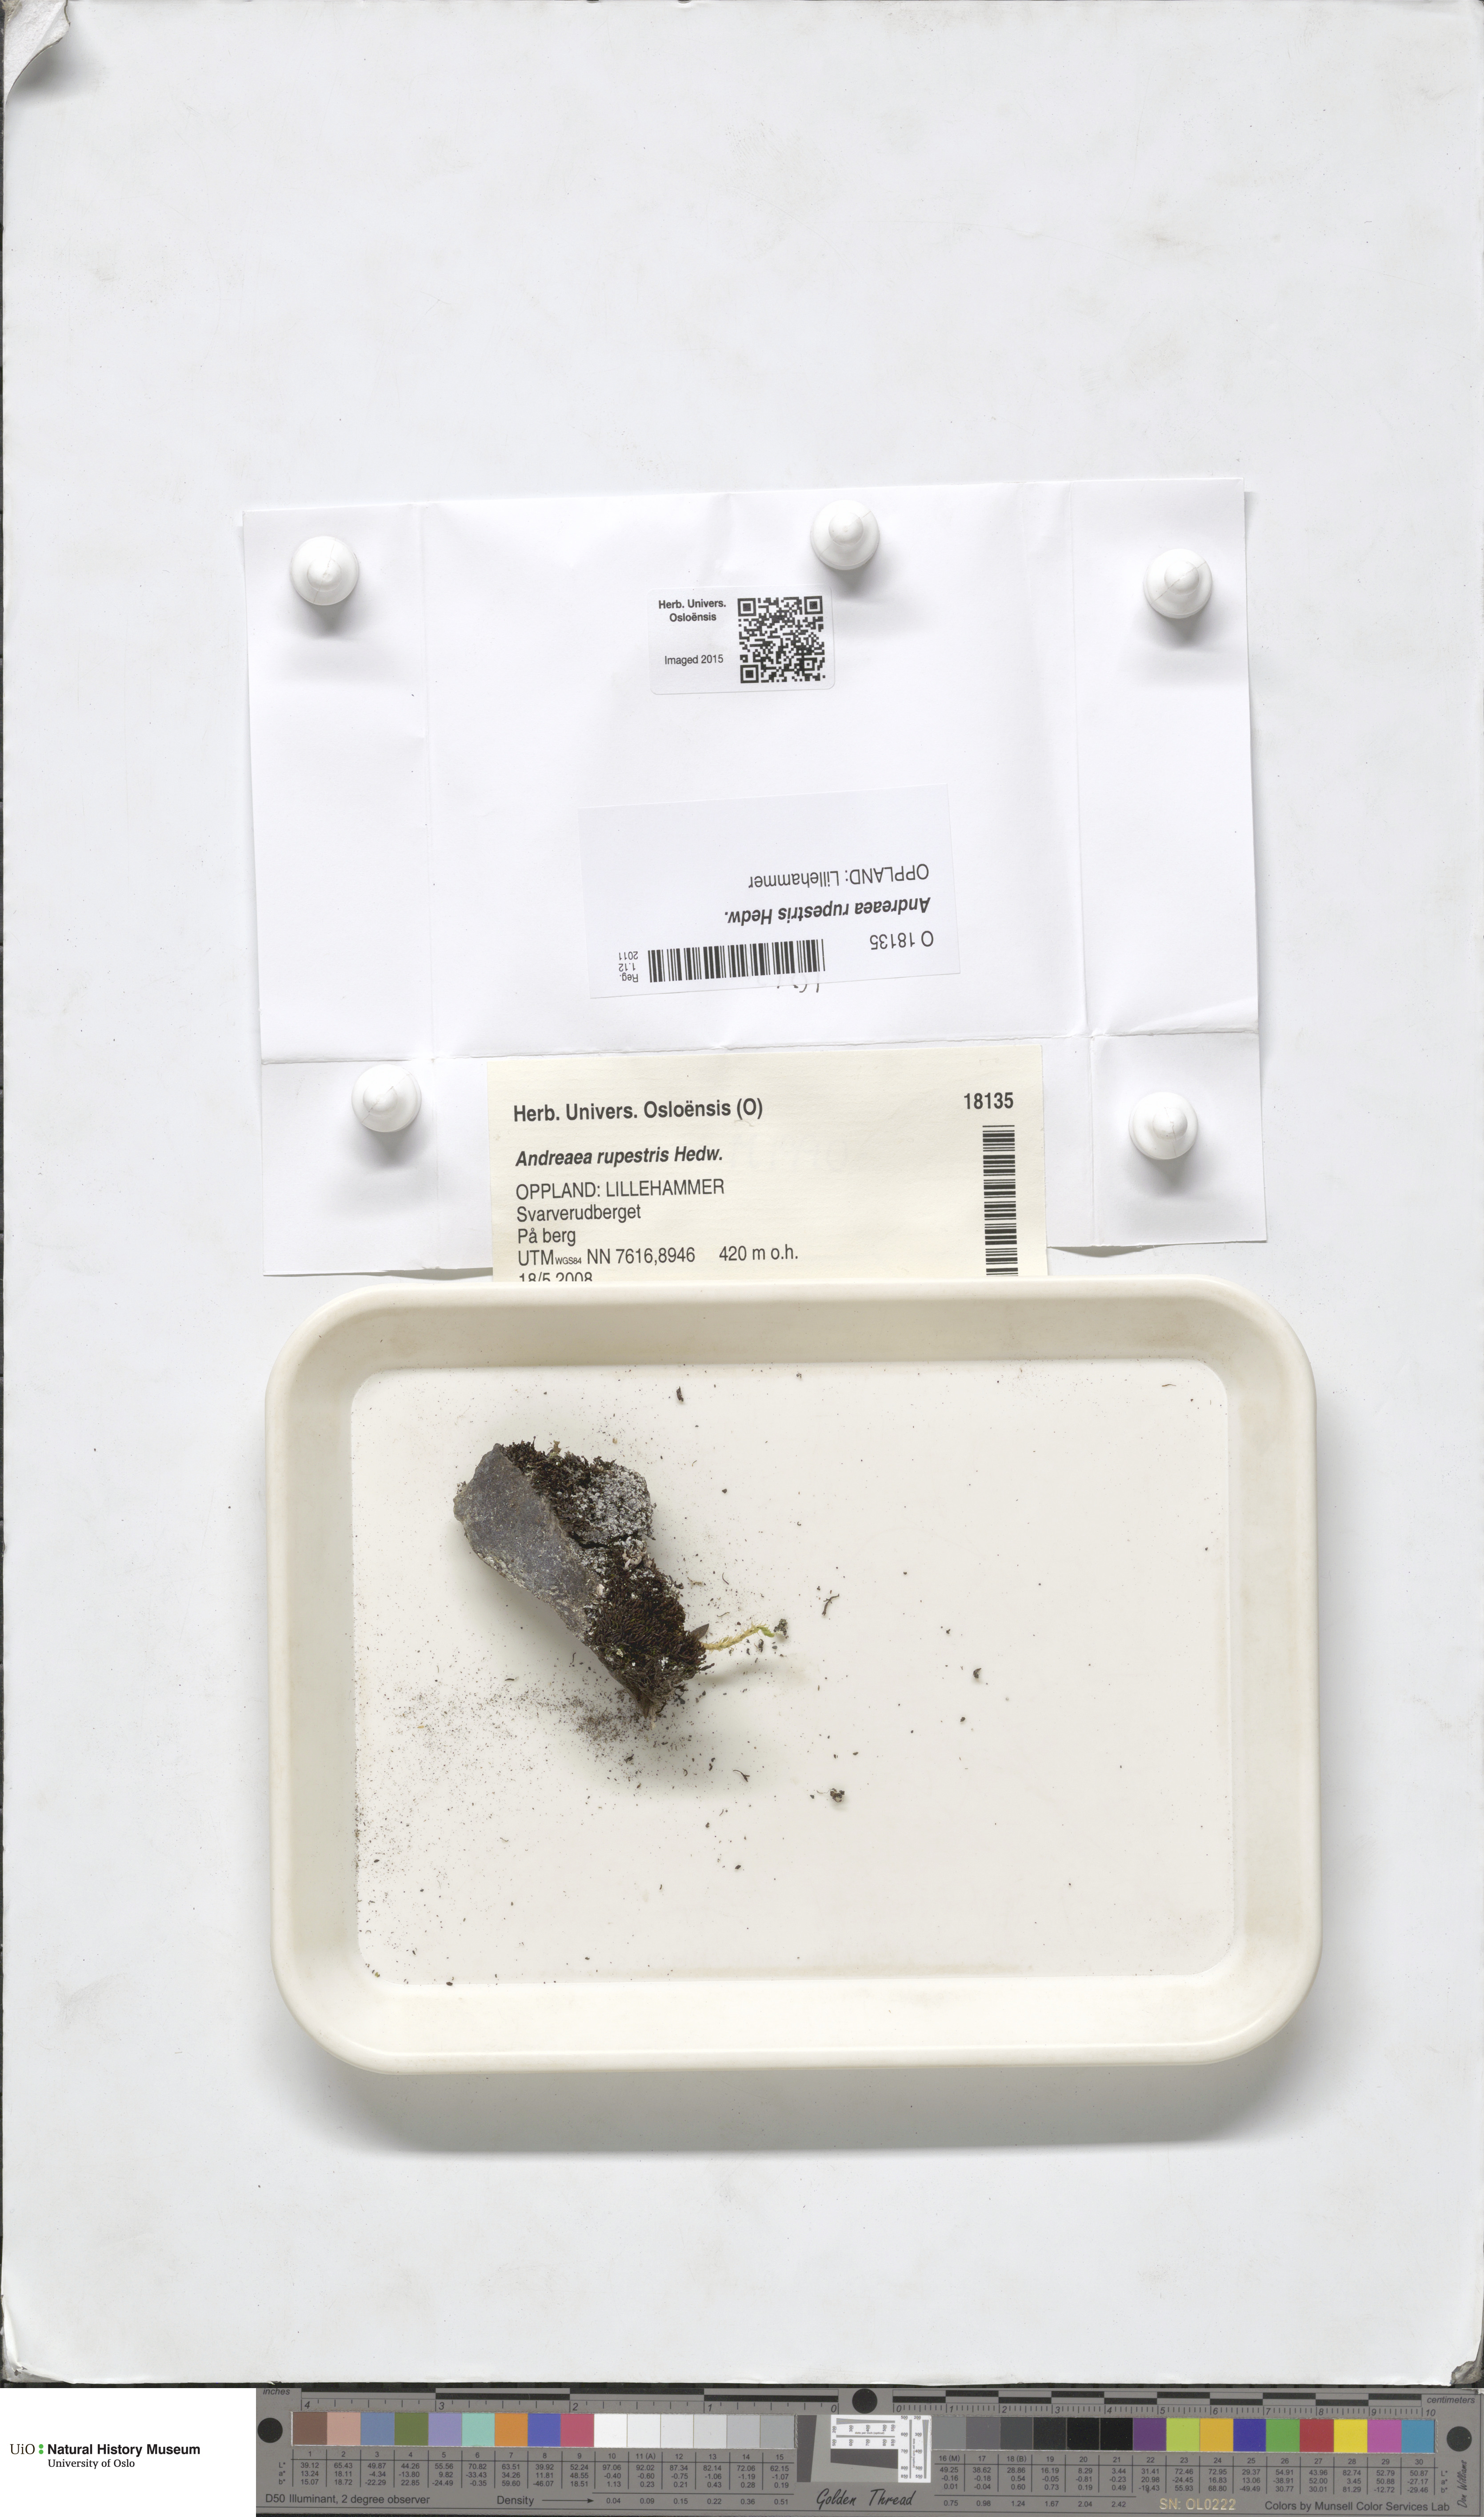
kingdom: Plantae
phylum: Bryophyta
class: Andreaeopsida
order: Andreaeales
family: Andreaeaceae
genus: Andreaea
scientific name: Andreaea rupestris
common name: Black rock moss
